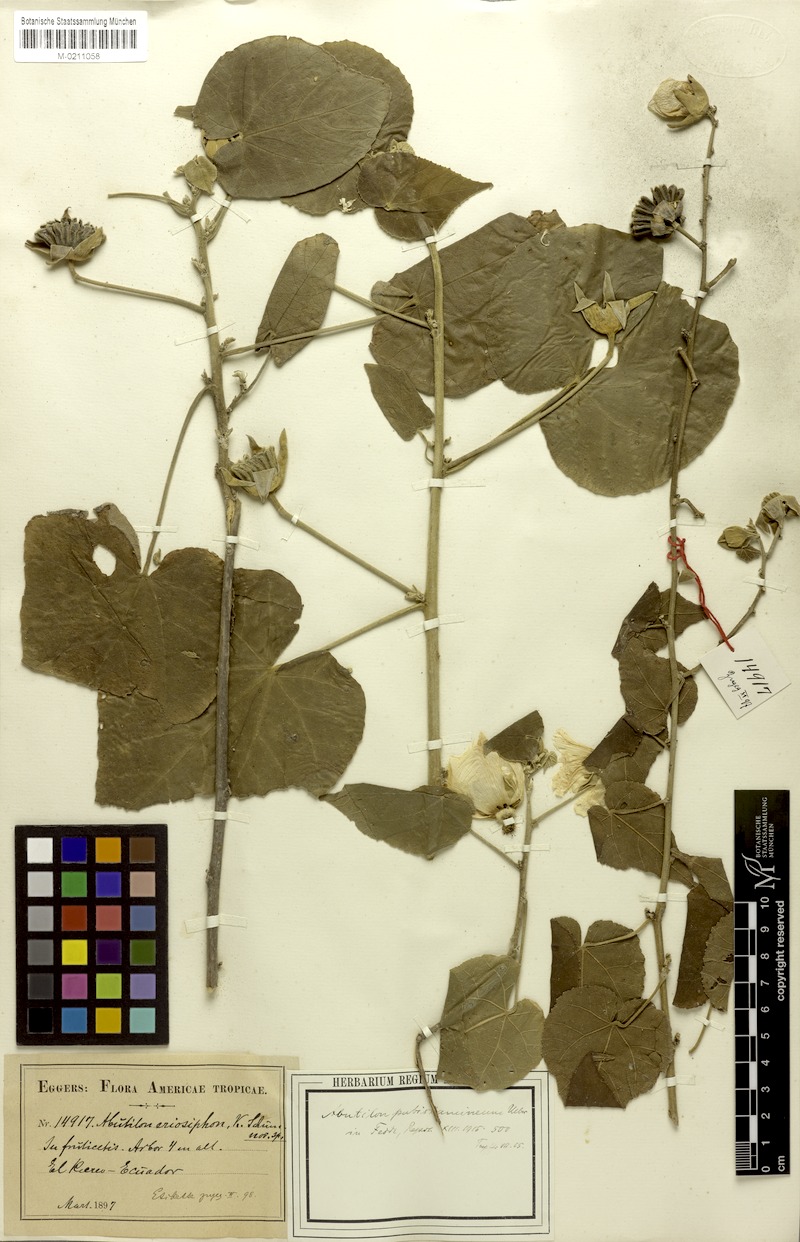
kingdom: Plantae
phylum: Tracheophyta
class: Magnoliopsida
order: Malvales
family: Malvaceae
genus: Abutilon
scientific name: Abutilon
